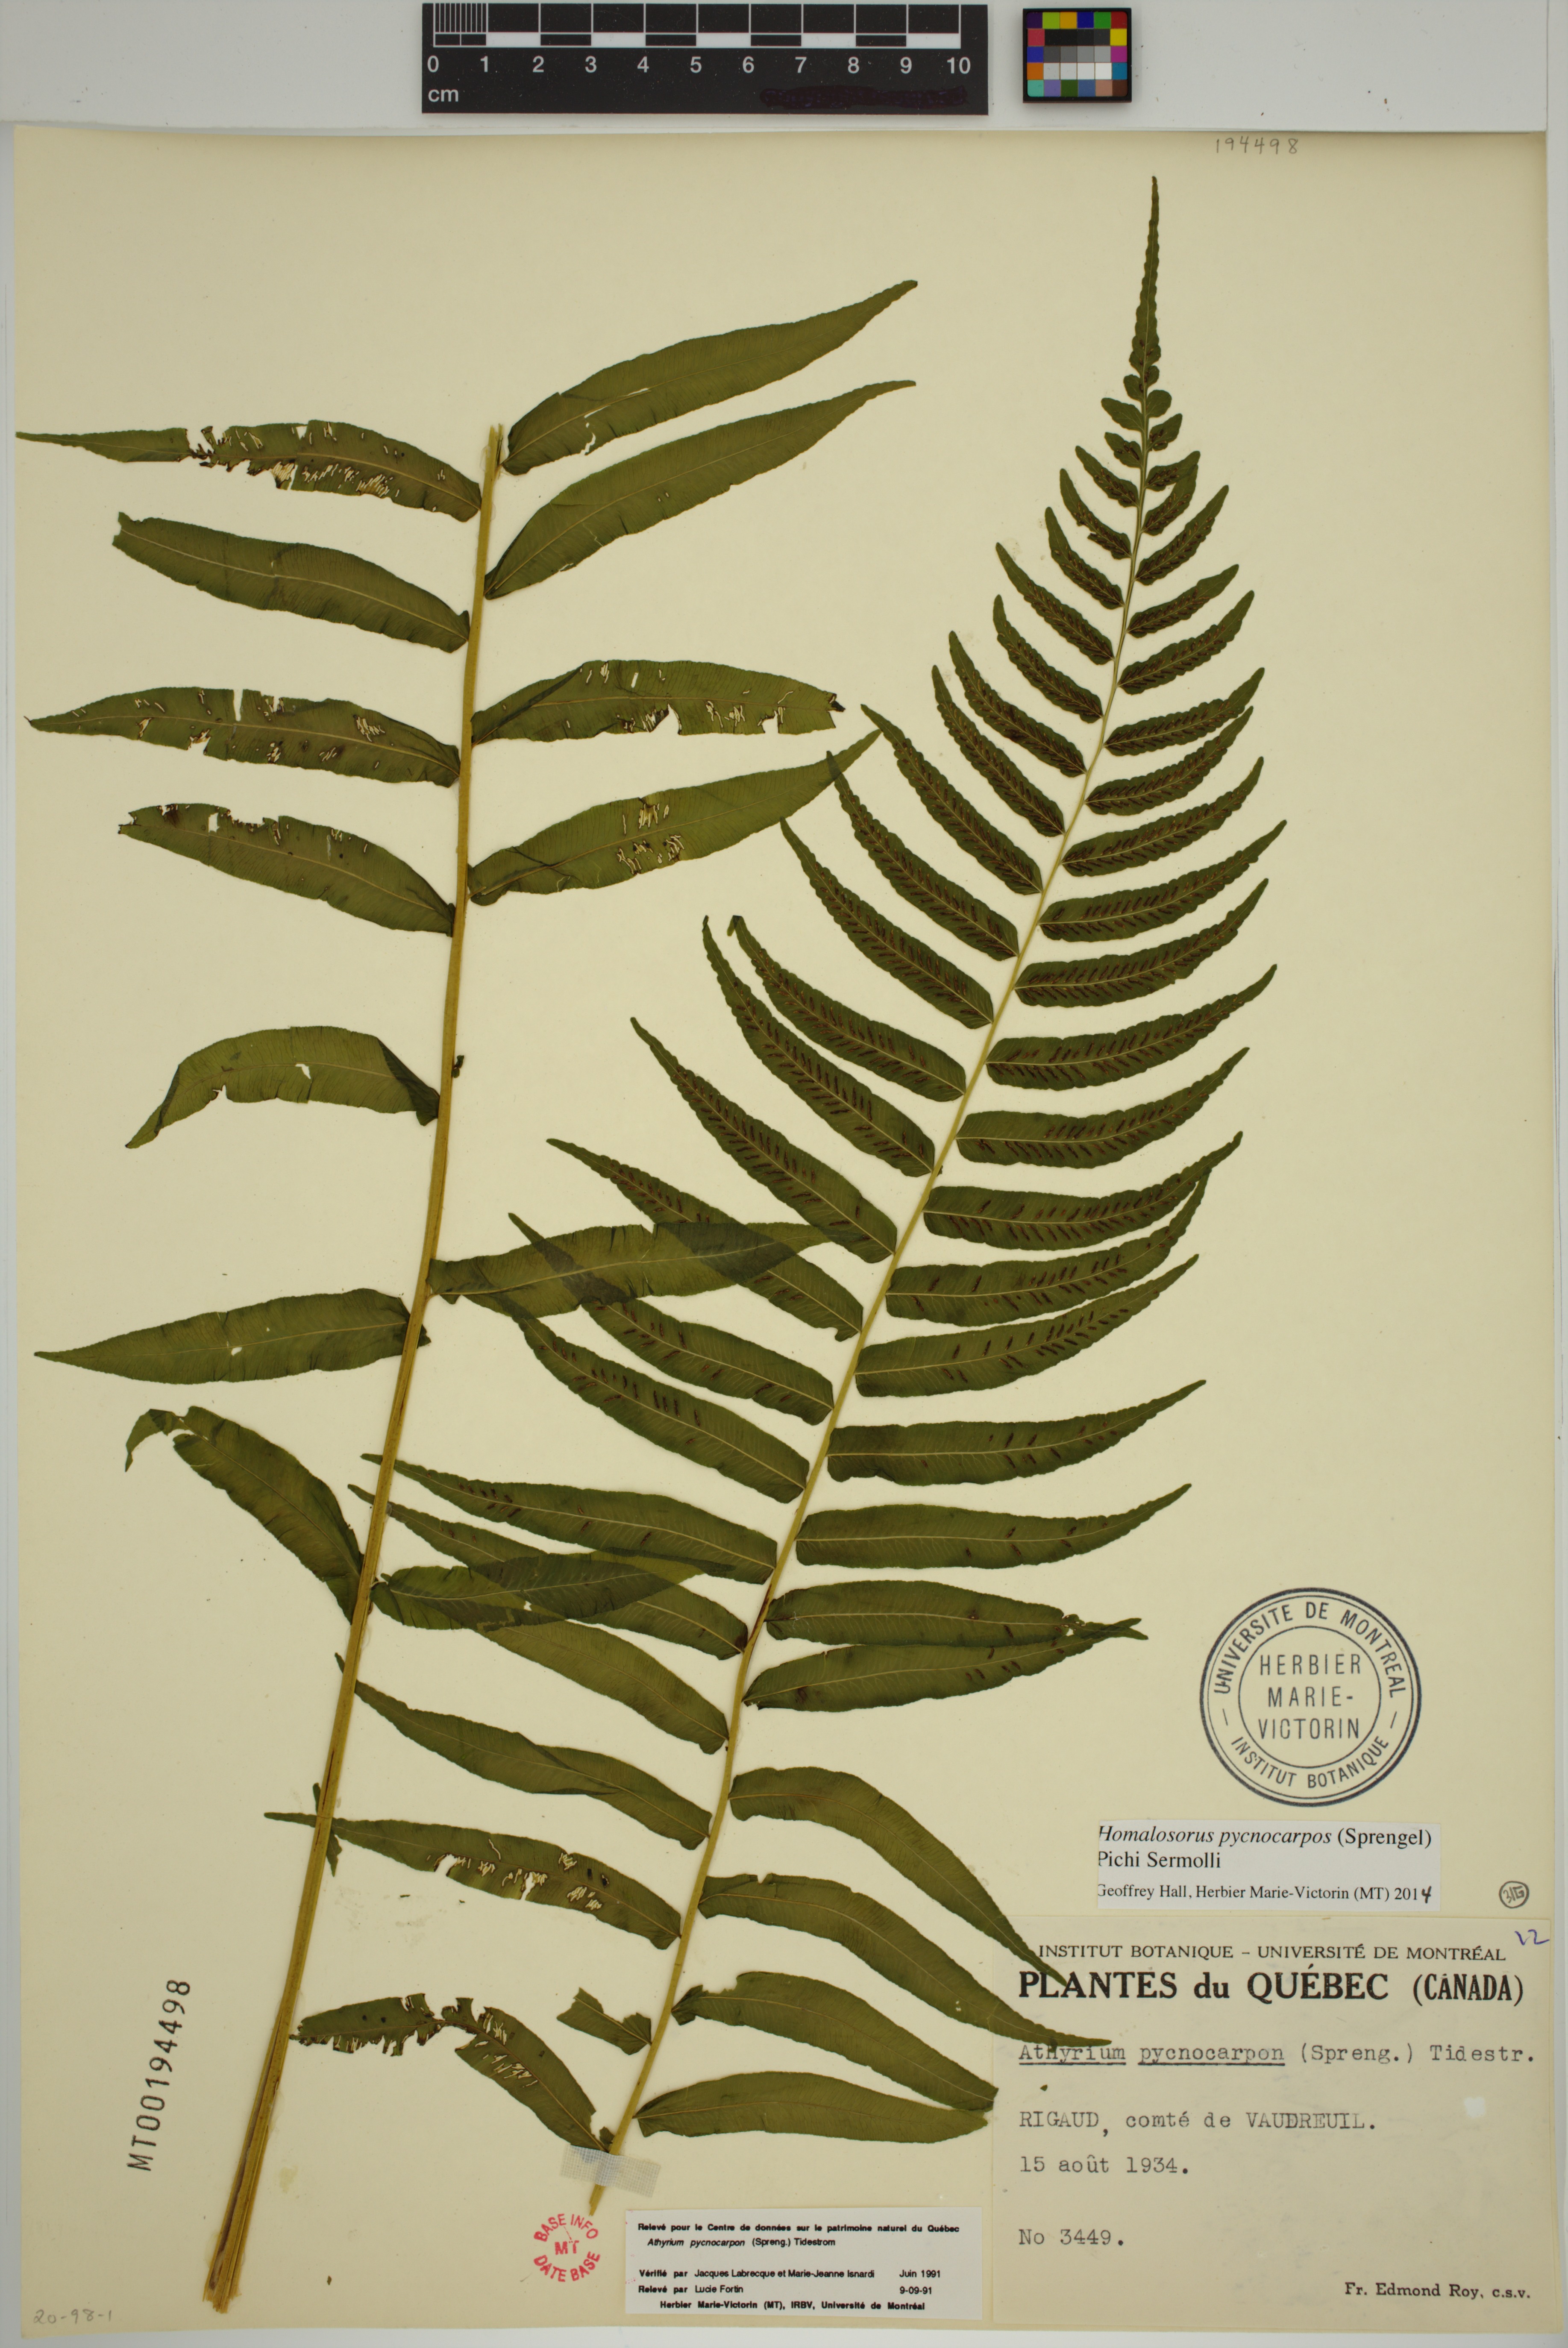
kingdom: Plantae
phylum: Tracheophyta
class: Polypodiopsida
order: Polypodiales
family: Diplaziopsidaceae
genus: Homalosorus
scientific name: Homalosorus pycnocarpos
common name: Glade fern
